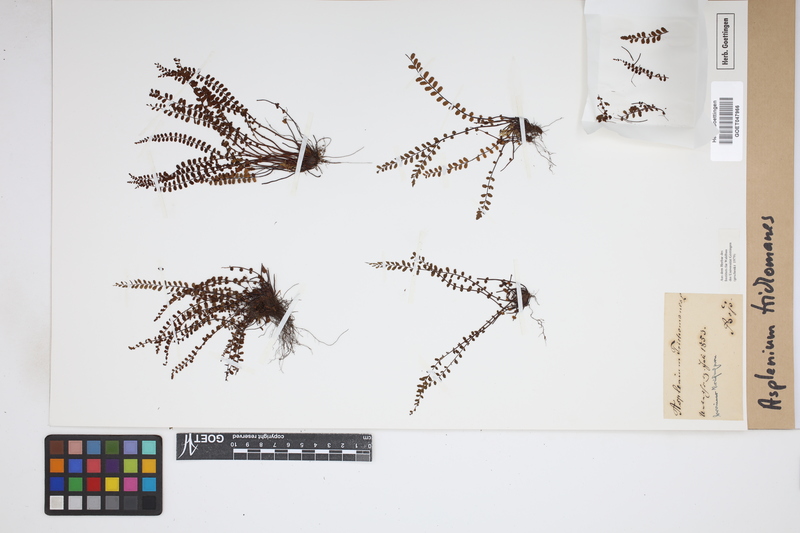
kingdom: Plantae
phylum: Tracheophyta
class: Polypodiopsida
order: Polypodiales
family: Aspleniaceae
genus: Asplenium
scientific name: Asplenium trichomanes
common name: Maidenhair spleenwort
